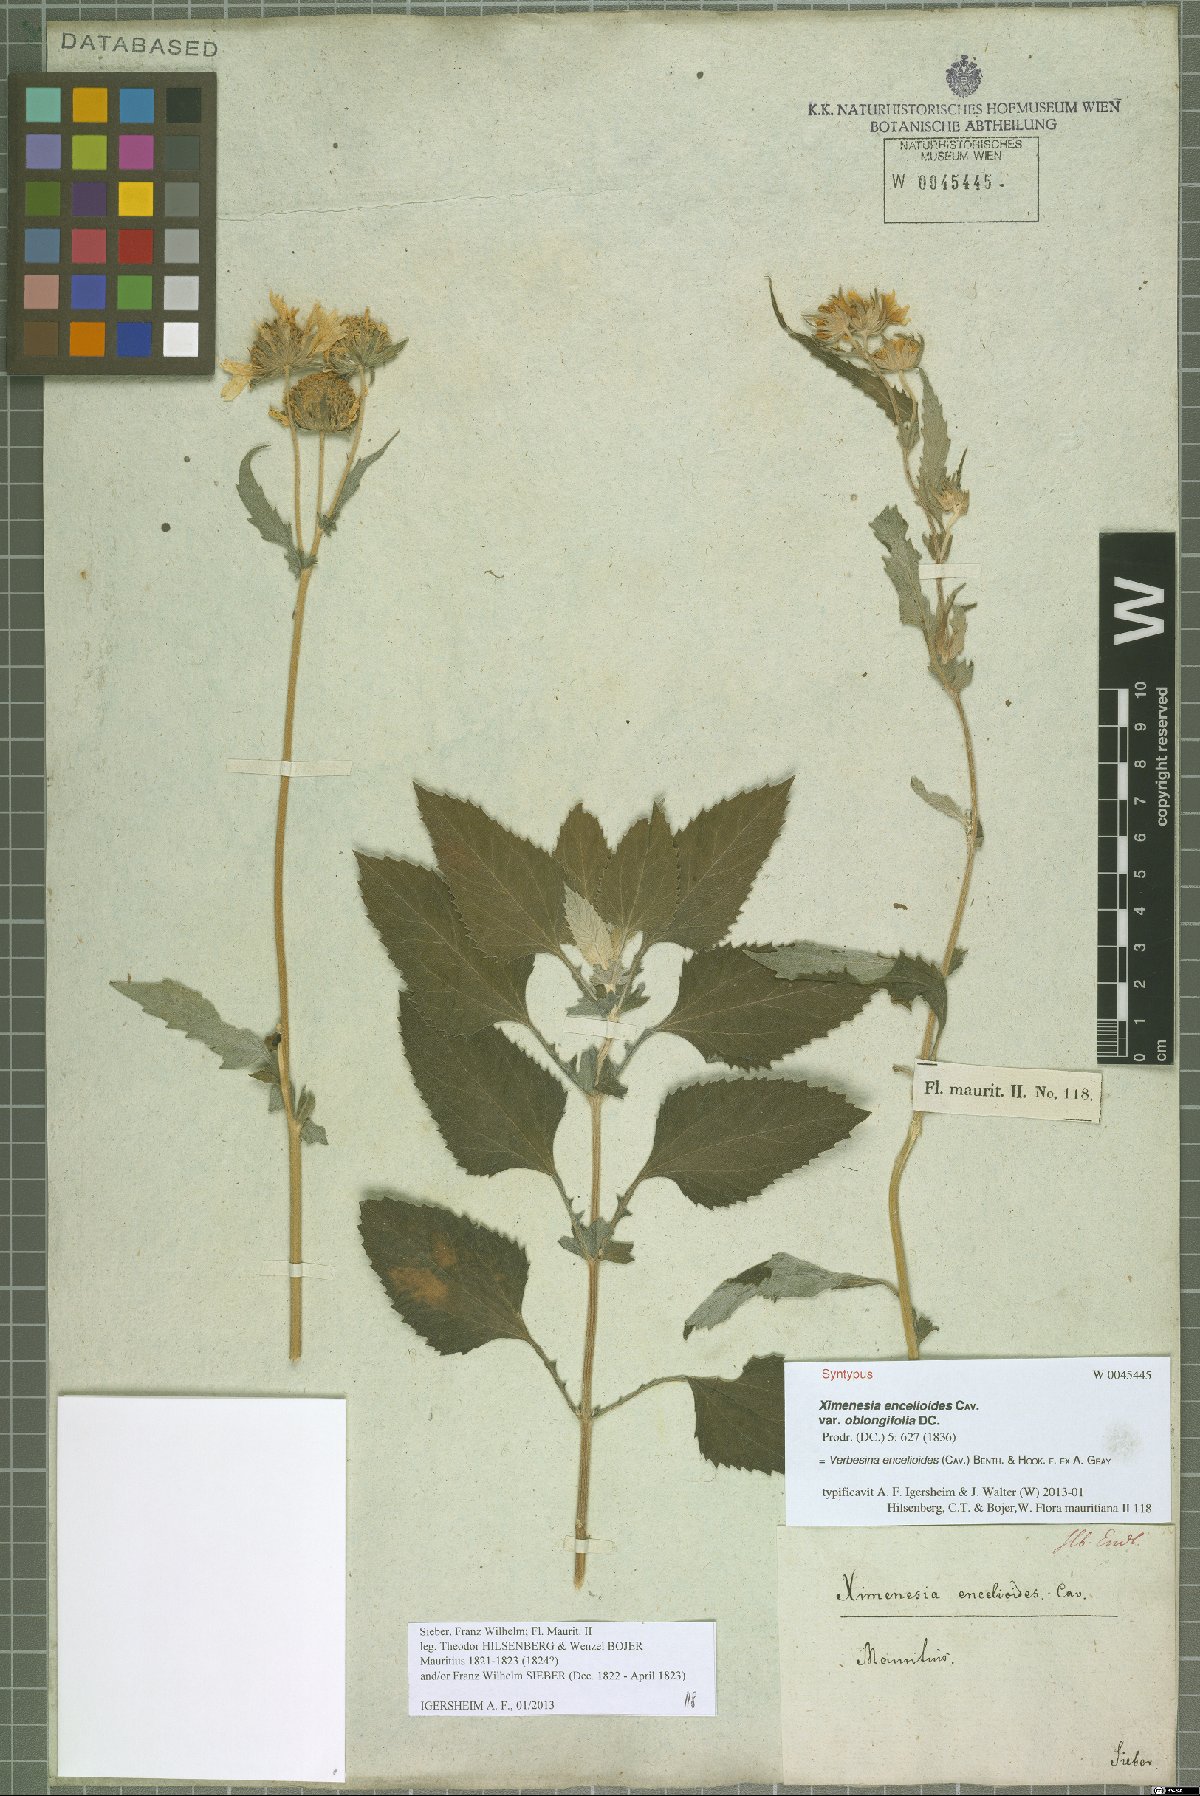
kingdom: Plantae
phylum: Tracheophyta
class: Magnoliopsida
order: Asterales
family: Asteraceae
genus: Verbesina
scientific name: Verbesina encelioides
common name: Golden crownbeard
